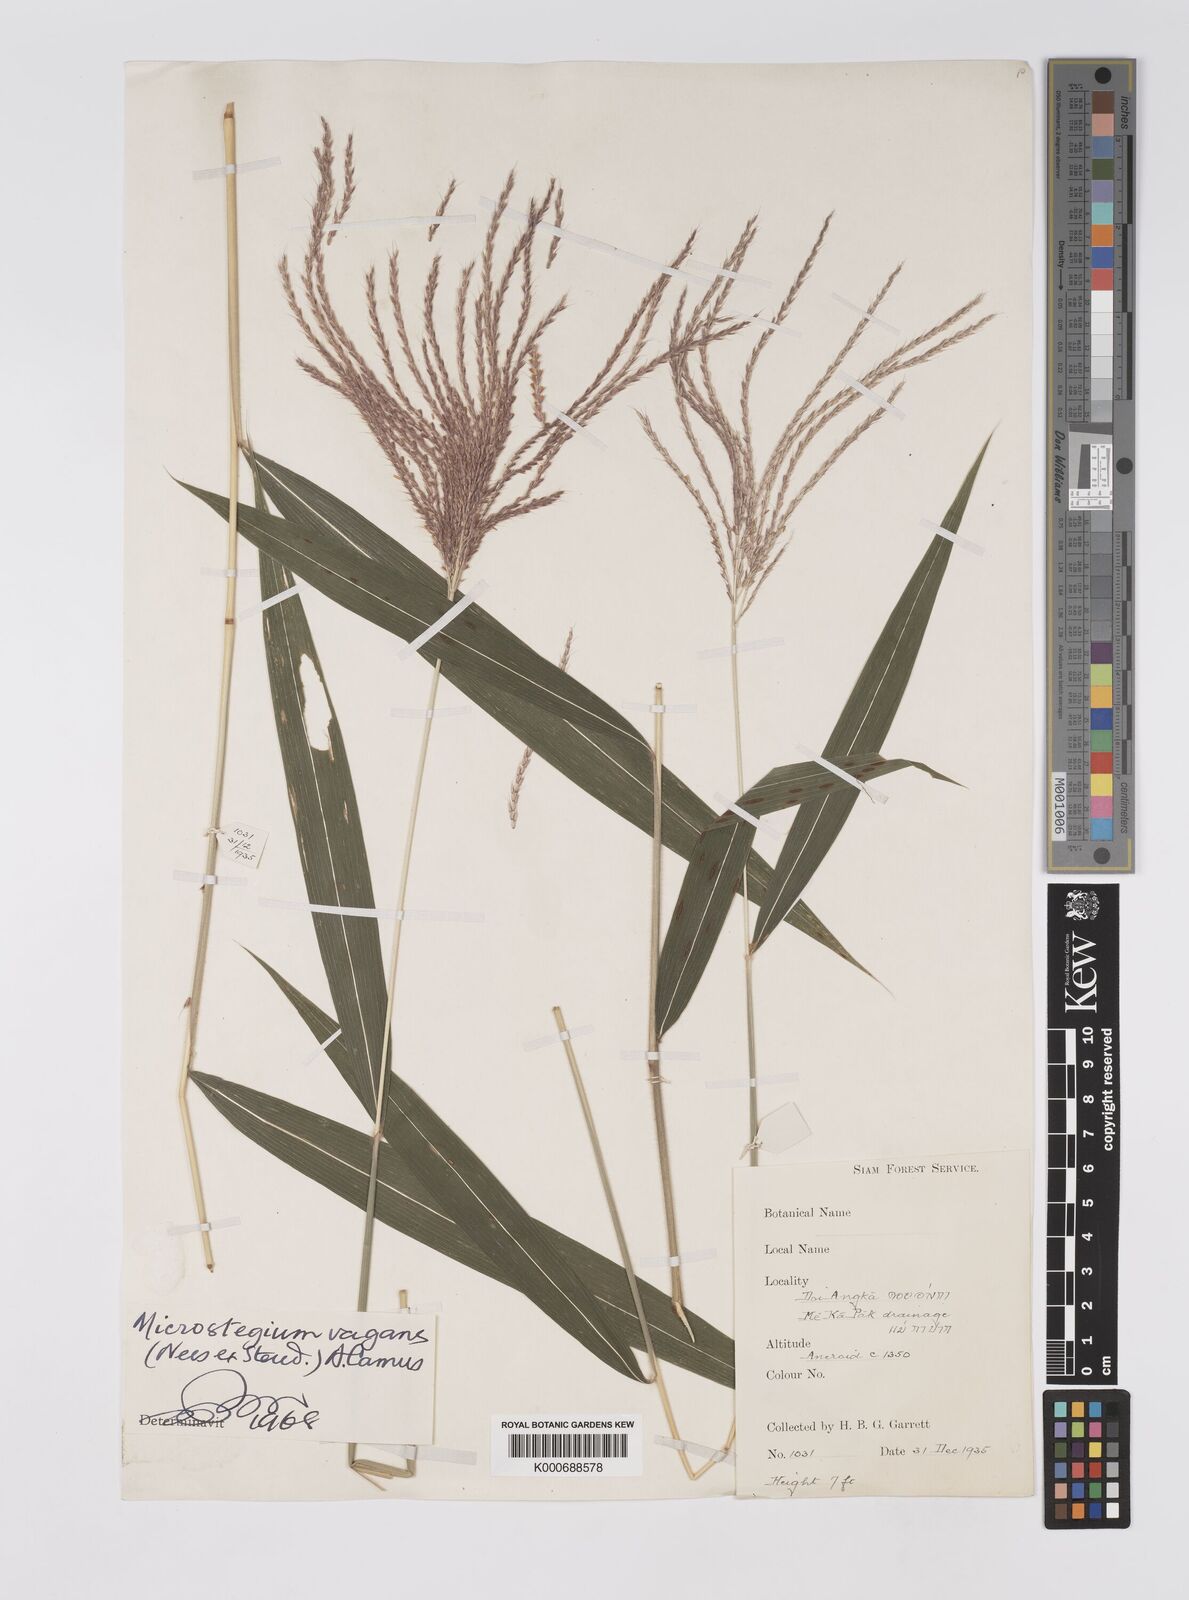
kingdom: Plantae
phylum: Tracheophyta
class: Liliopsida
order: Poales
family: Poaceae
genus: Microstegium
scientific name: Microstegium fasciculatum
